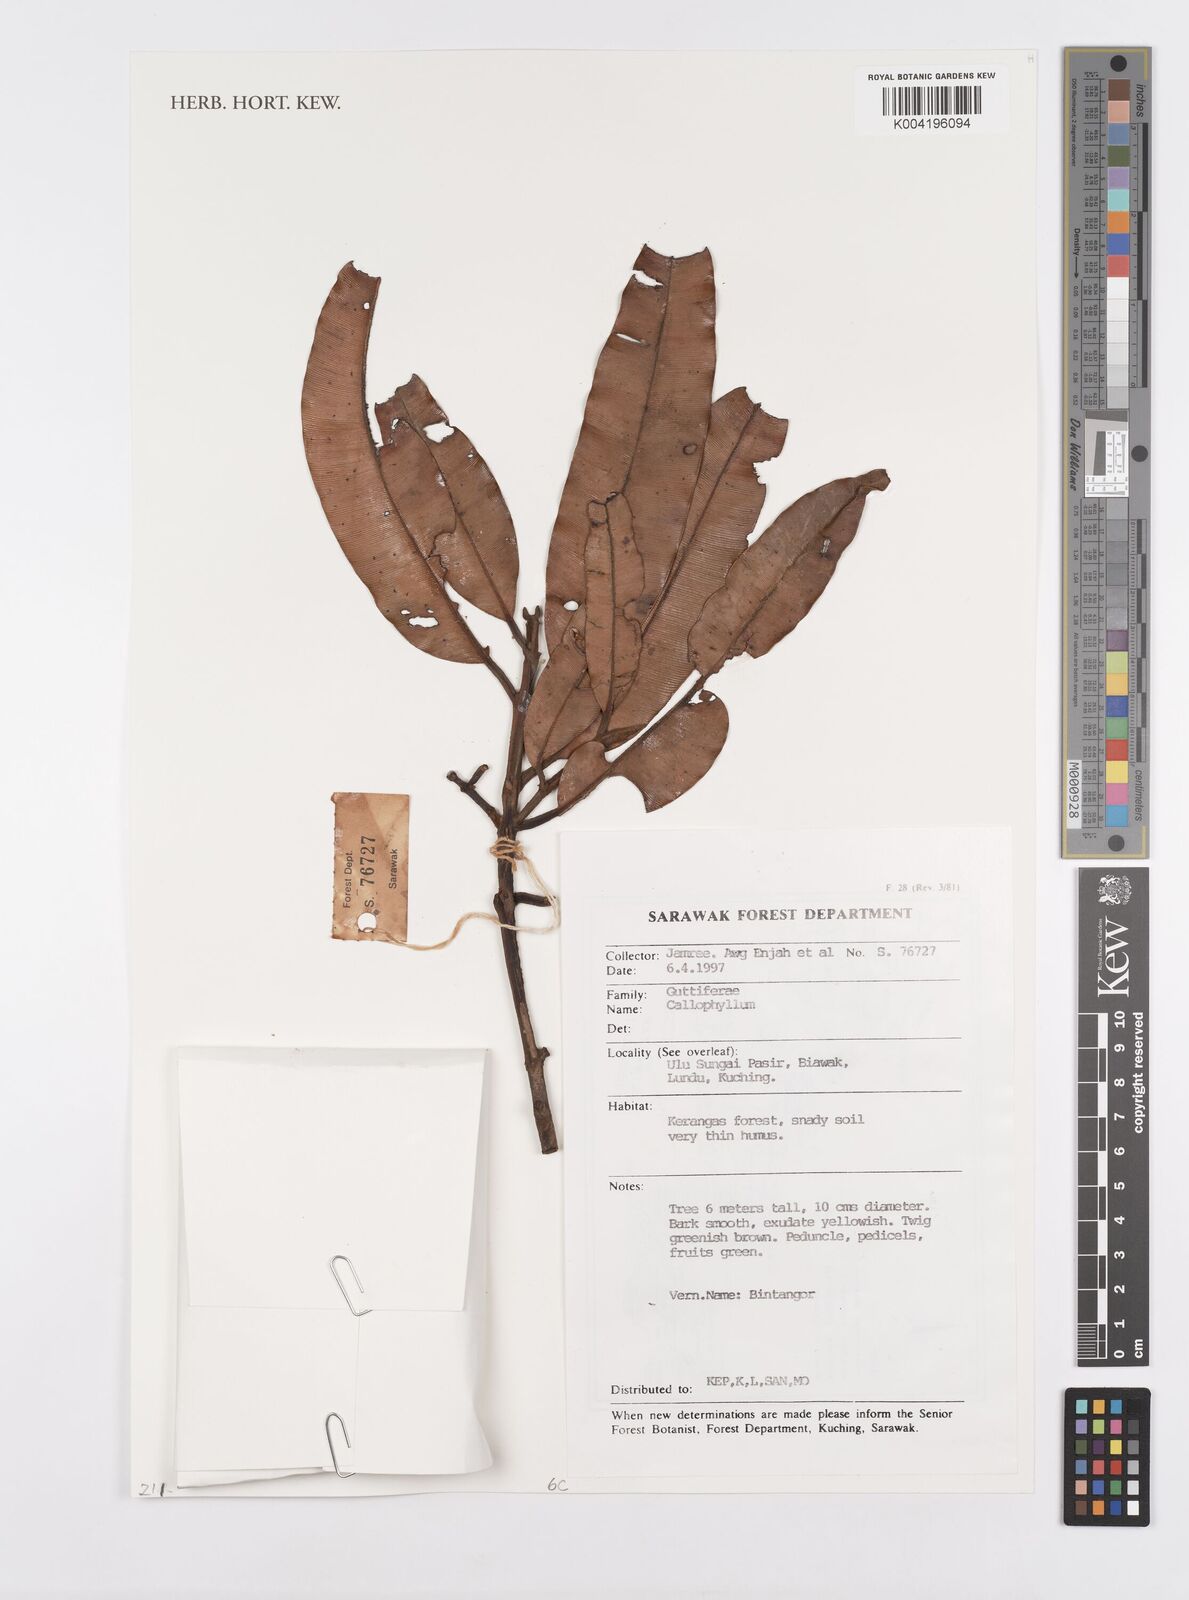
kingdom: Plantae
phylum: Tracheophyta
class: Magnoliopsida
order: Malpighiales
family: Calophyllaceae
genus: Calophyllum
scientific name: Calophyllum
